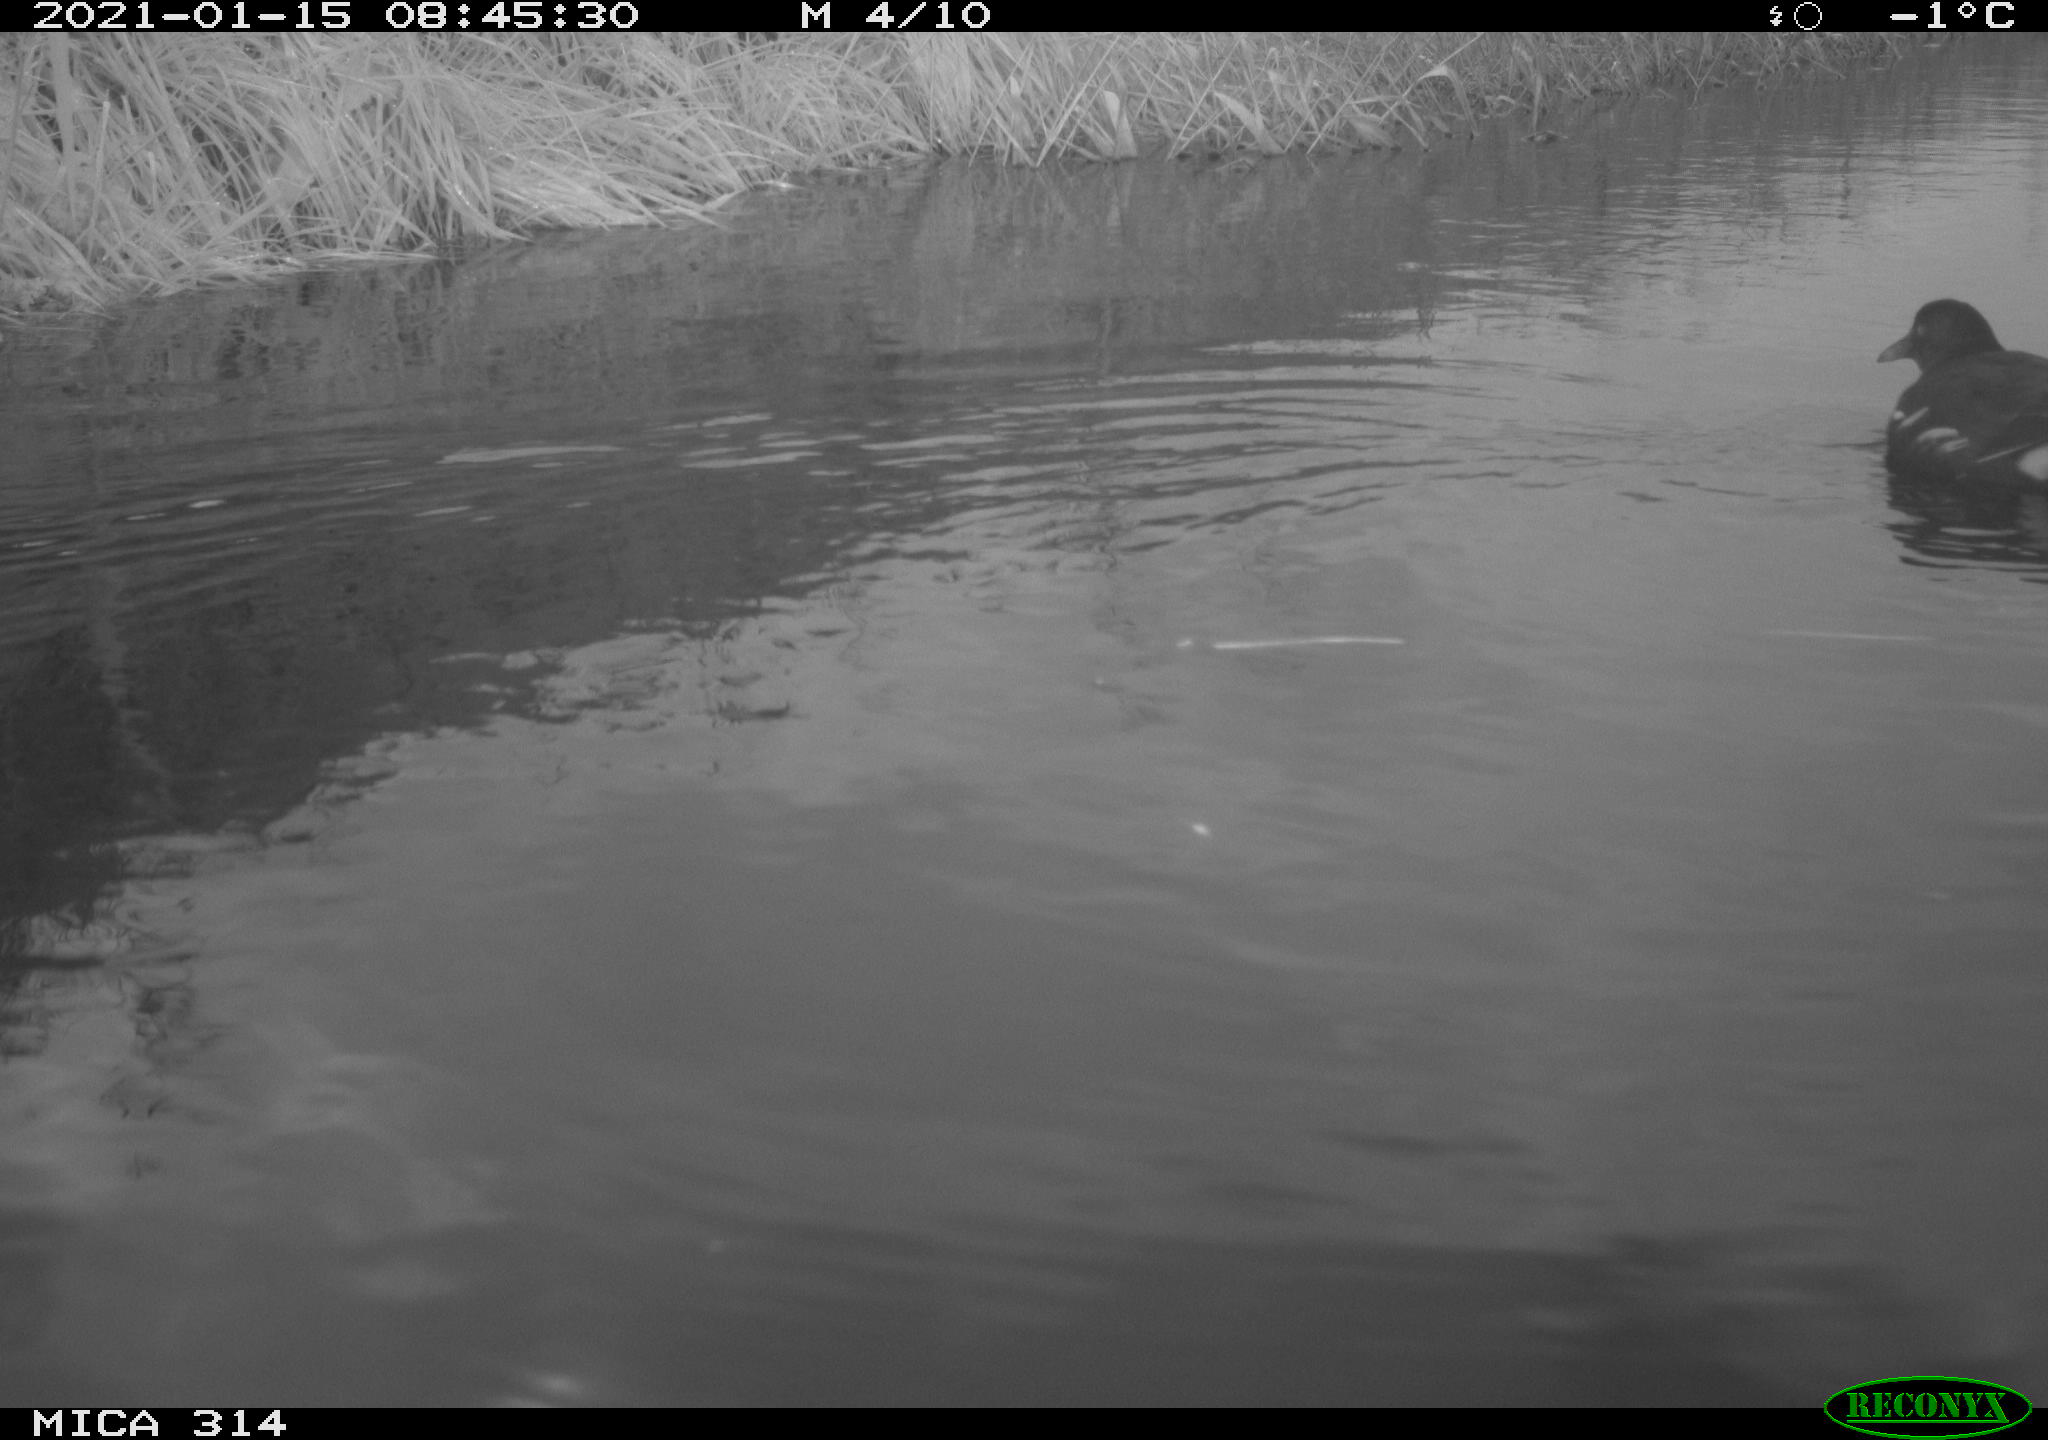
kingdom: Animalia
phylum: Chordata
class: Aves
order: Gruiformes
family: Rallidae
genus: Gallinula
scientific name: Gallinula chloropus
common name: Common moorhen
